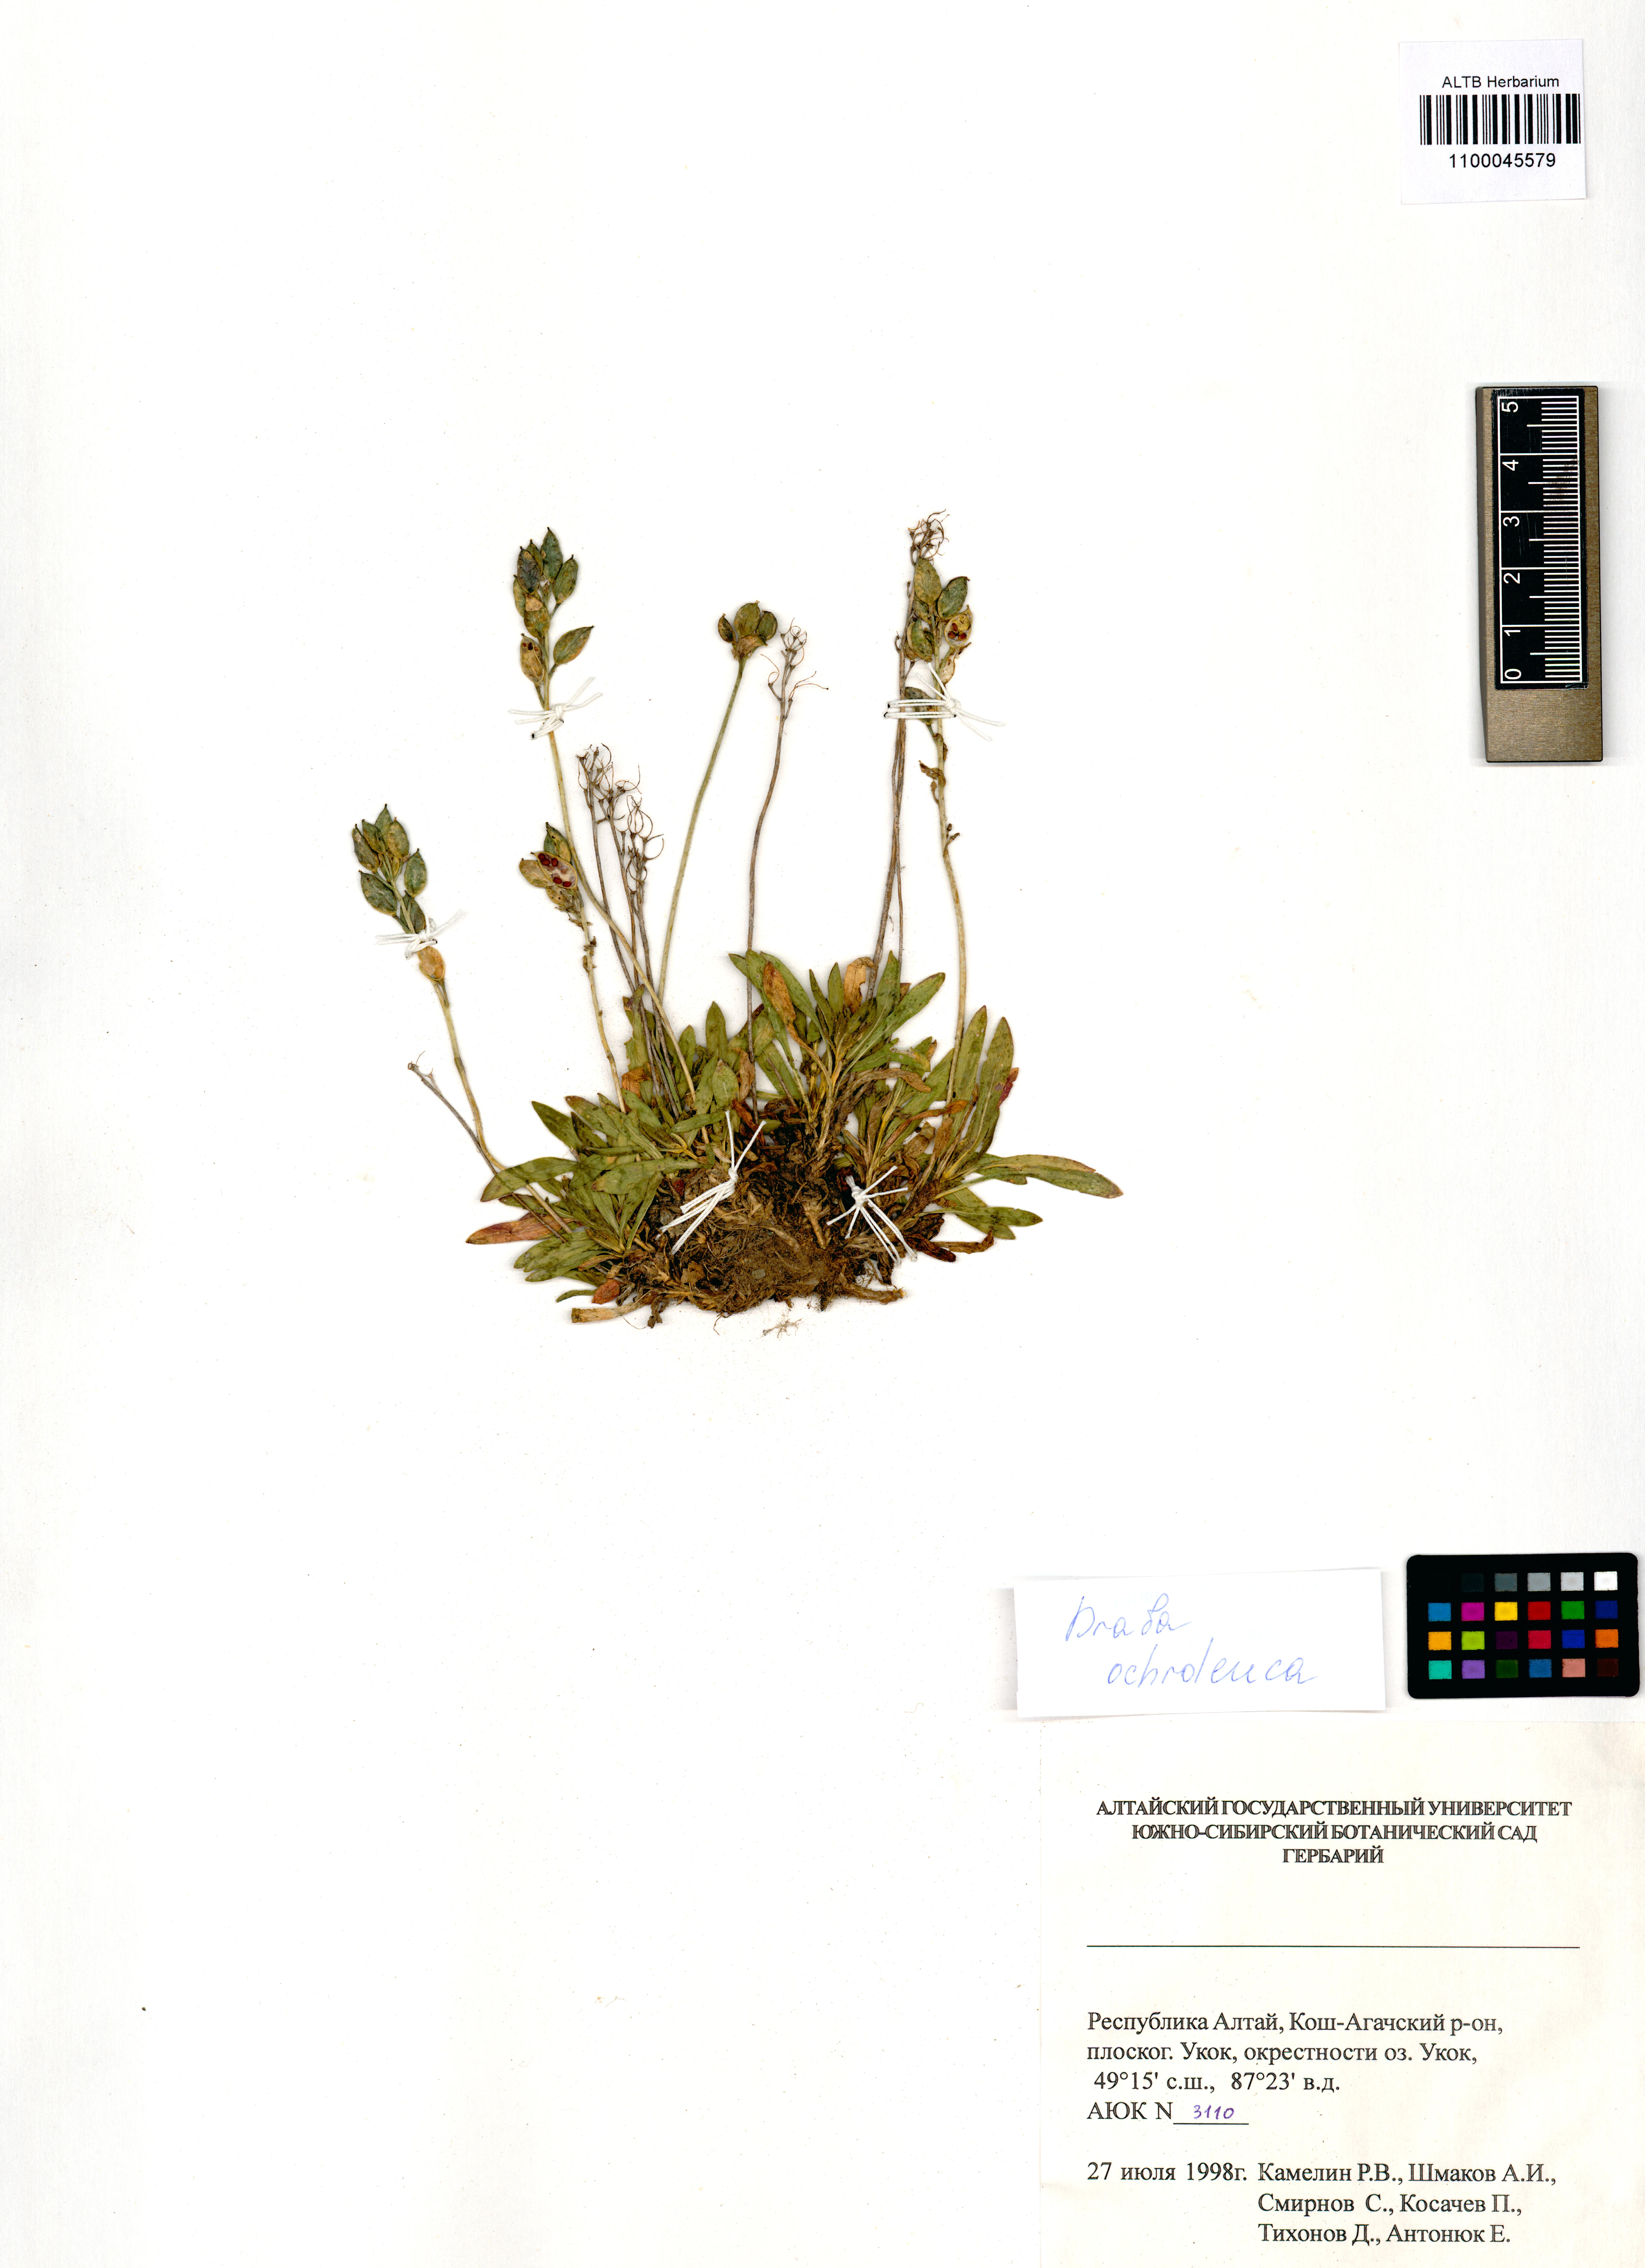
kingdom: Plantae
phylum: Tracheophyta
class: Magnoliopsida
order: Brassicales
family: Brassicaceae
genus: Draba
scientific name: Draba ochroleuca
